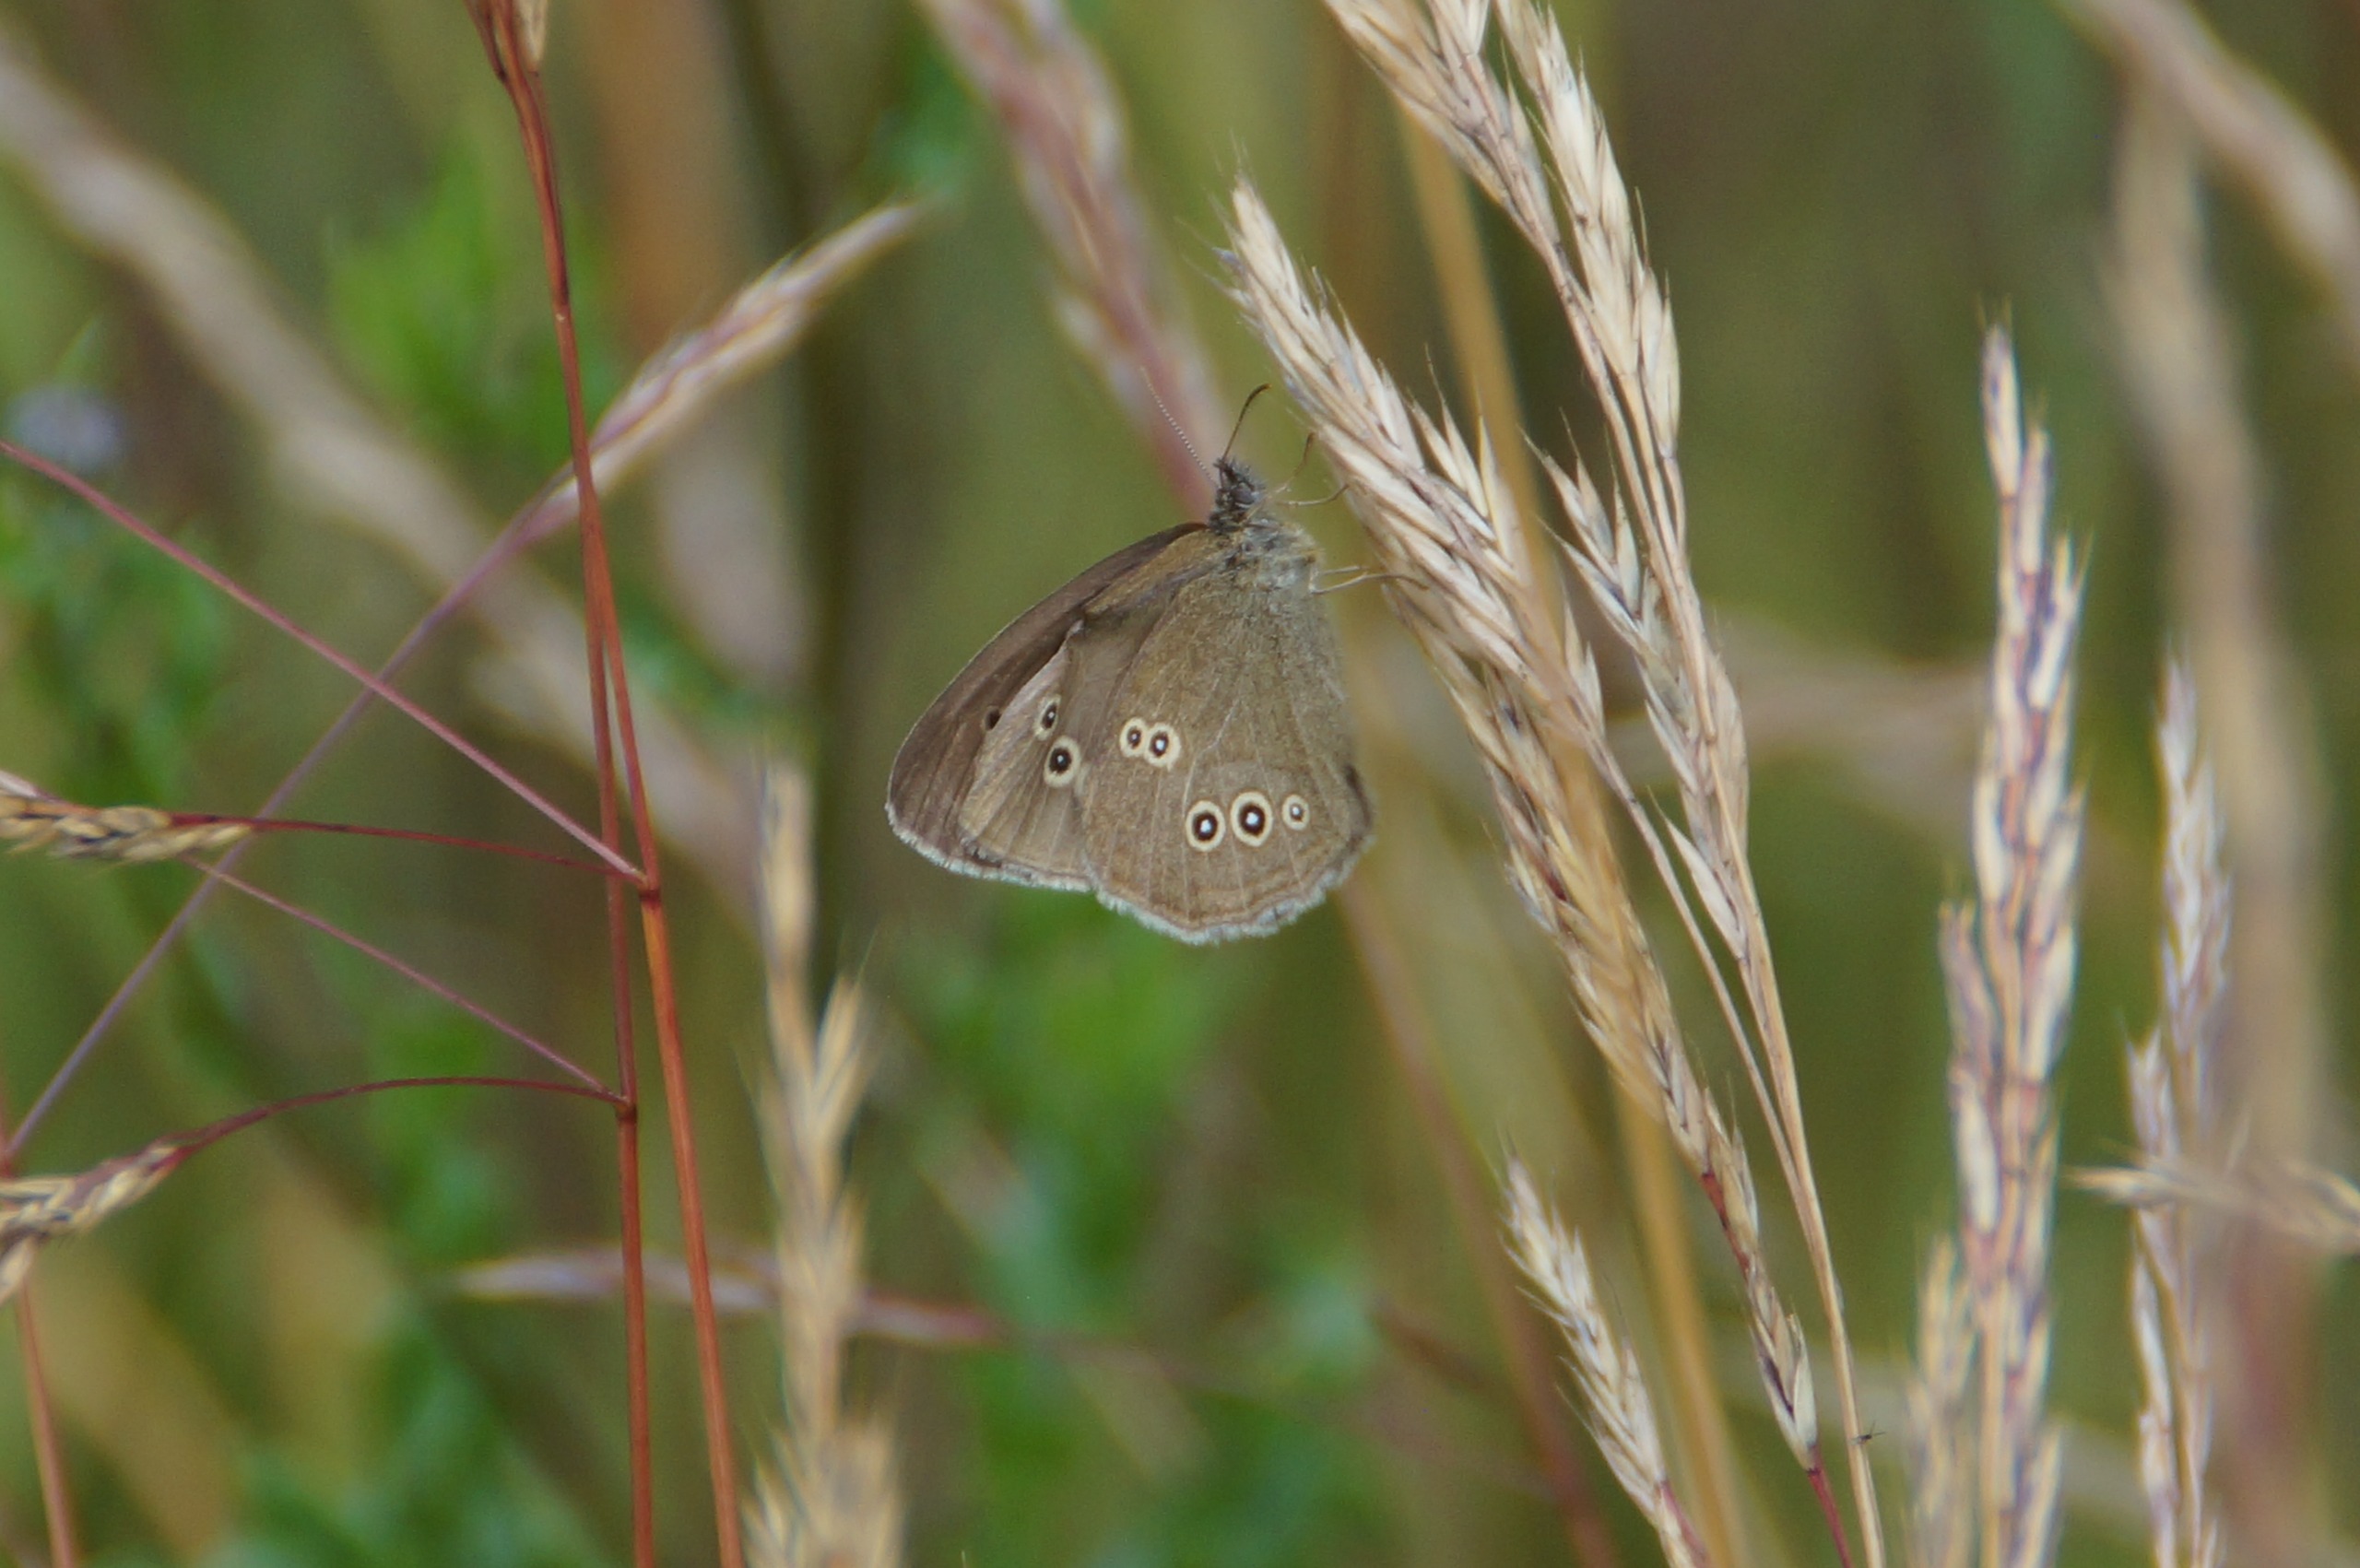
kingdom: Animalia
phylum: Arthropoda
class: Insecta
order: Lepidoptera
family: Nymphalidae
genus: Aphantopus
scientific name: Aphantopus hyperantus
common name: Engrandøje
